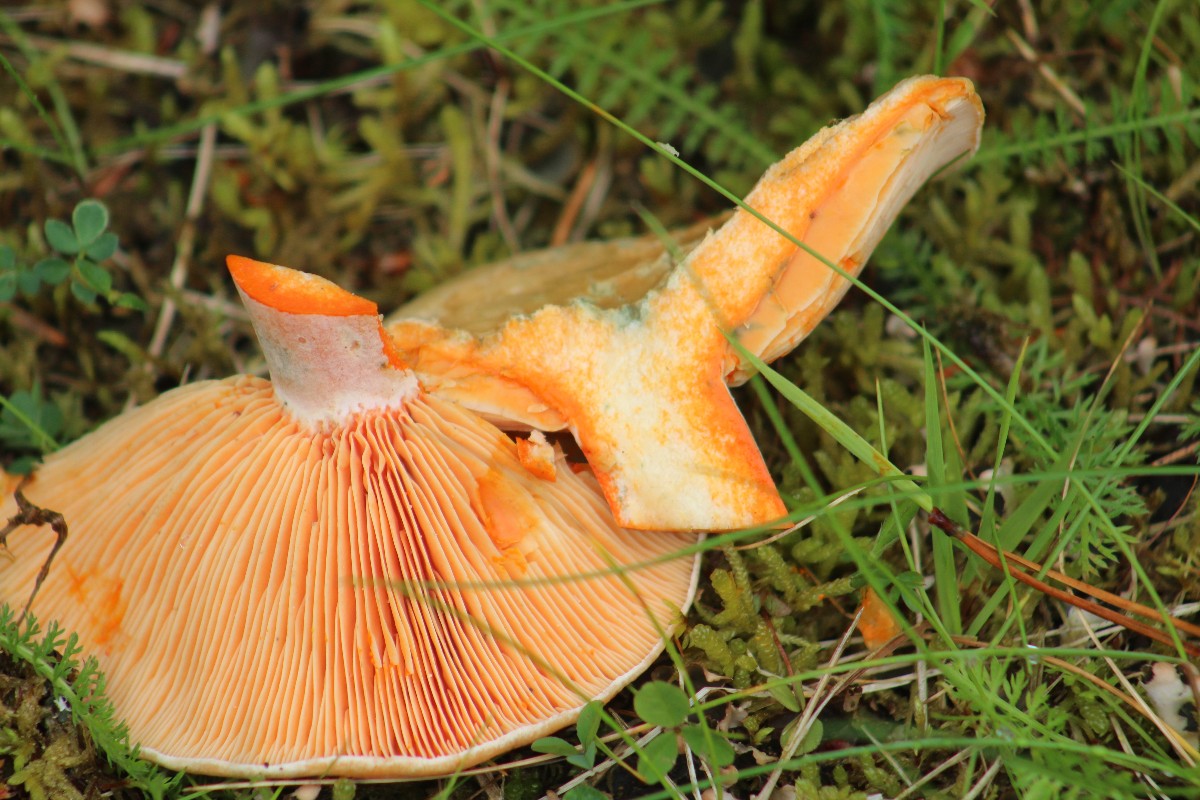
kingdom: Fungi
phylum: Basidiomycota
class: Agaricomycetes
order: Russulales
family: Russulaceae
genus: Lactarius
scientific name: Lactarius deterrimus
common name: gran-mælkehat
